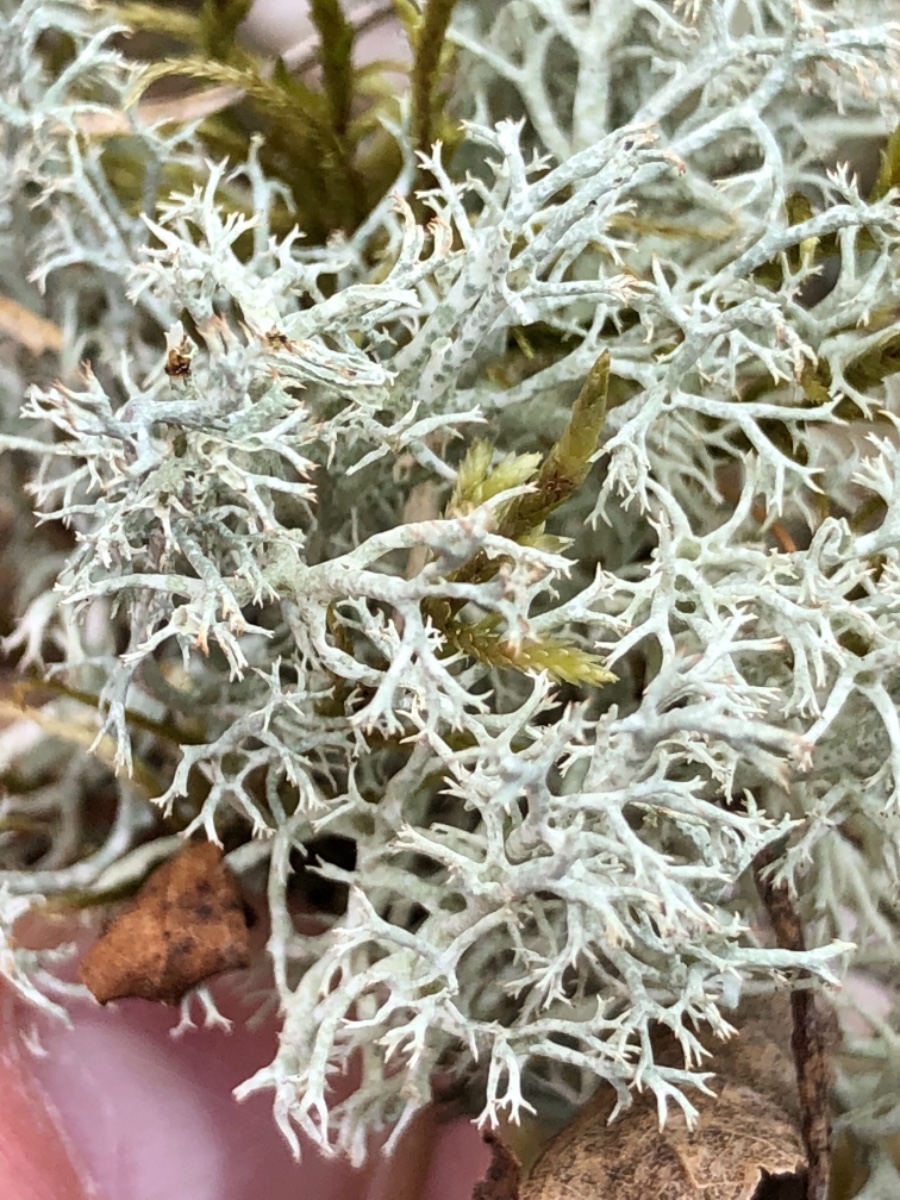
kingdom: Fungi
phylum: Ascomycota
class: Lecanoromycetes
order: Lecanorales
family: Cladoniaceae
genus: Cladonia
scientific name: Cladonia portentosa
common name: hede-rensdyrlav
